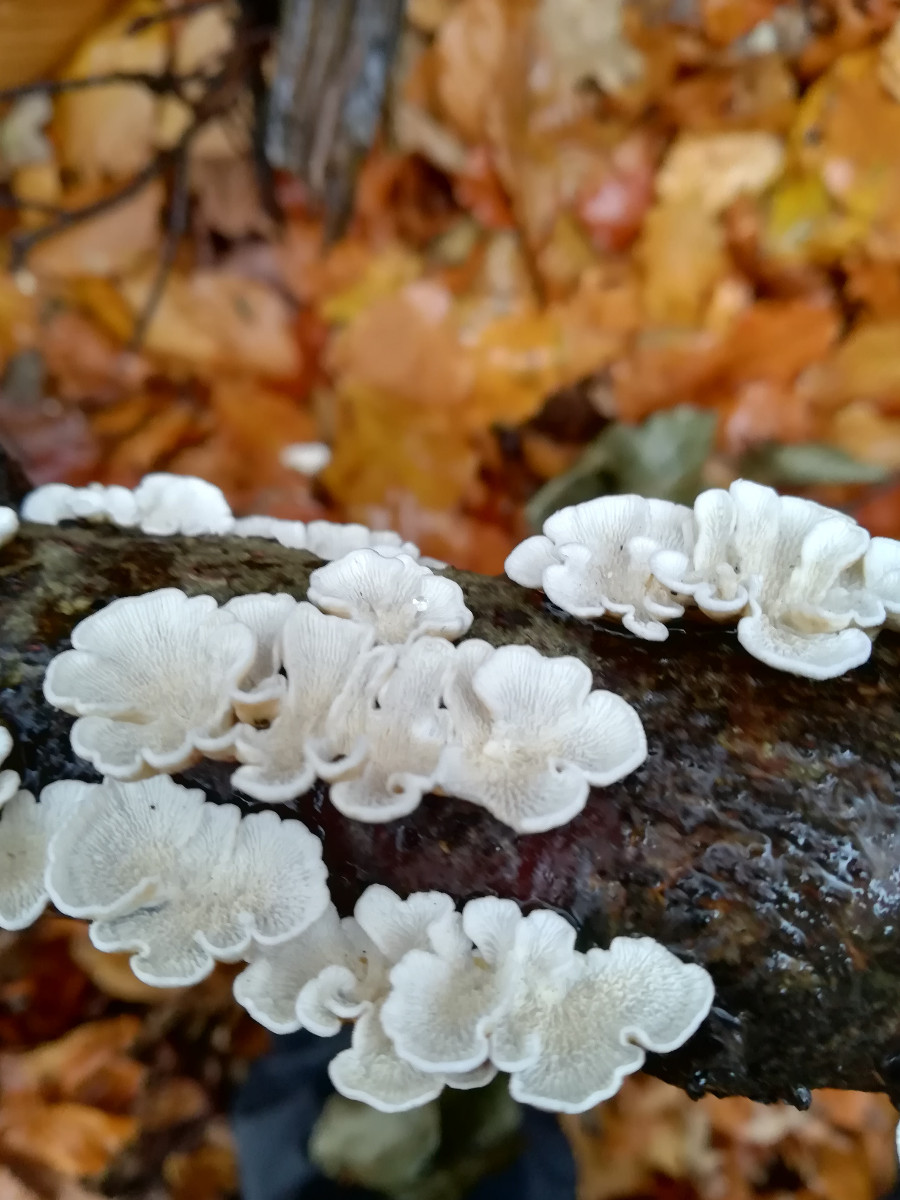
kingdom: Fungi
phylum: Basidiomycota
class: Agaricomycetes
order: Amylocorticiales
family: Amylocorticiaceae
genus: Plicaturopsis
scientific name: Plicaturopsis crispa
